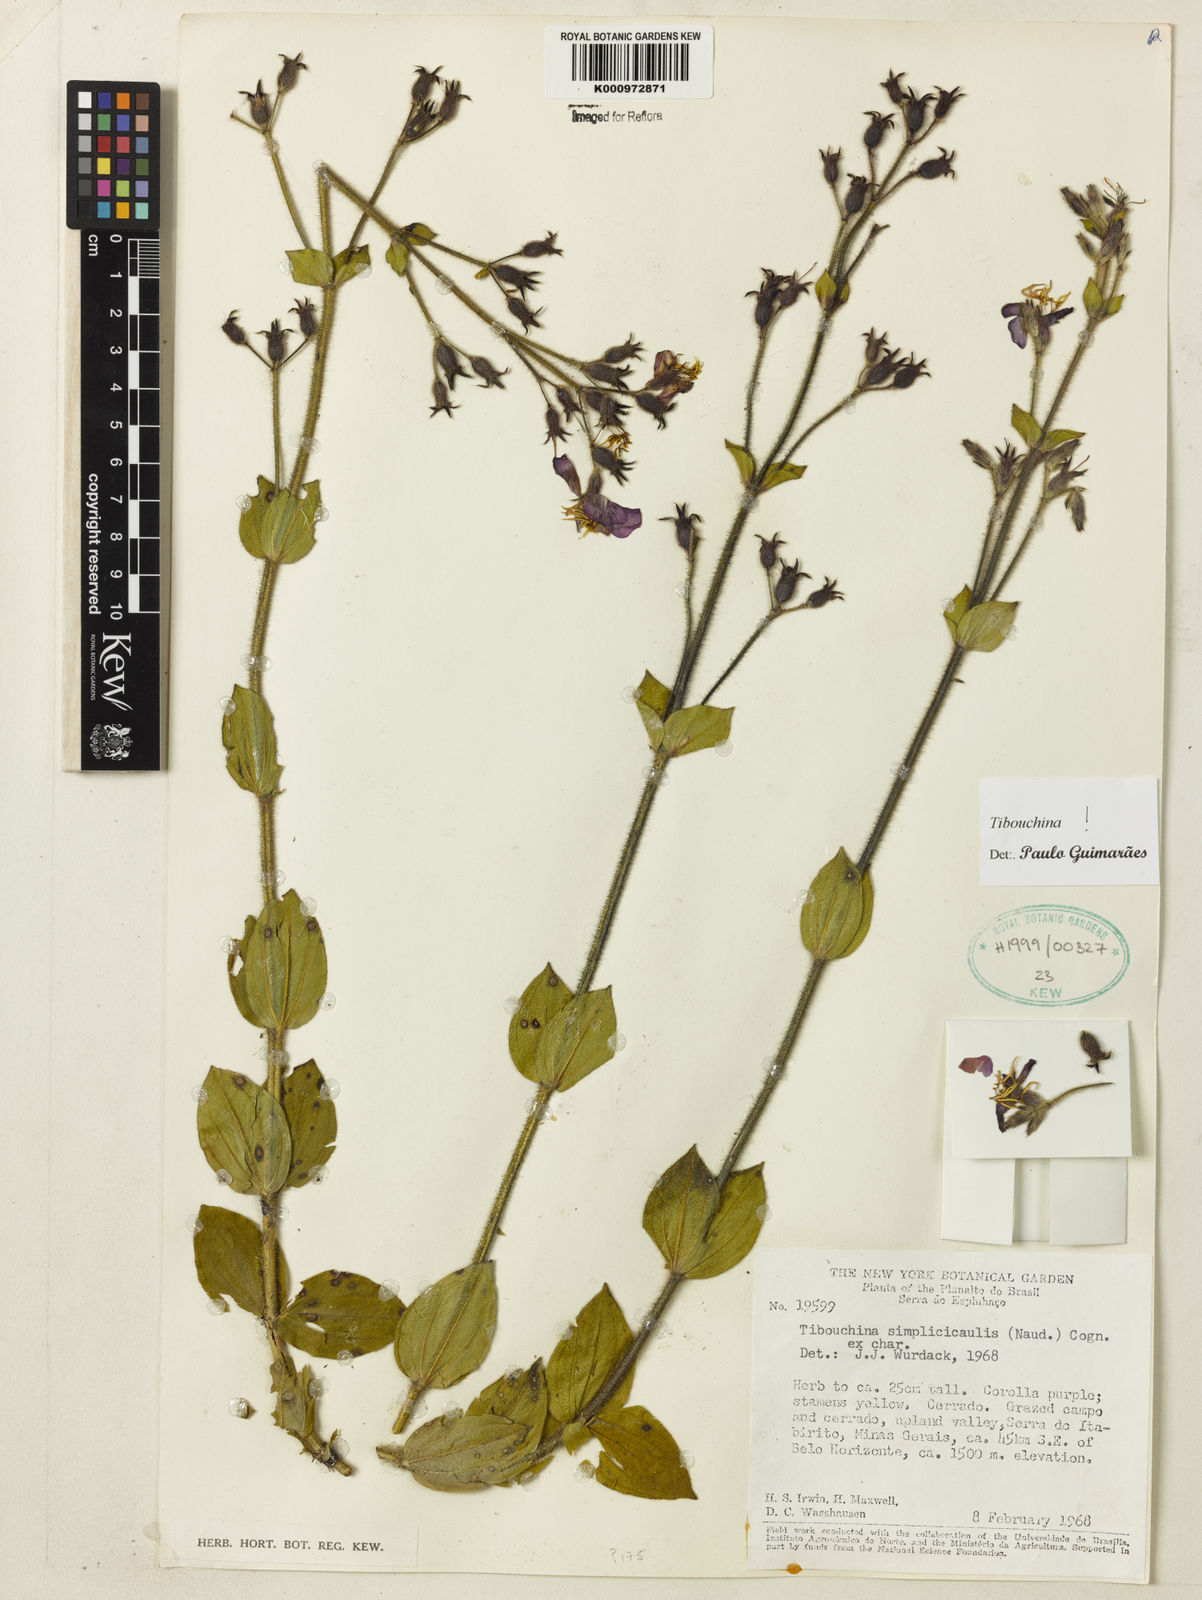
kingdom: Plantae
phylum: Tracheophyta
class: Magnoliopsida
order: Myrtales
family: Melastomataceae
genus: Chaetogastra
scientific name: Chaetogastra simplicicaulis
